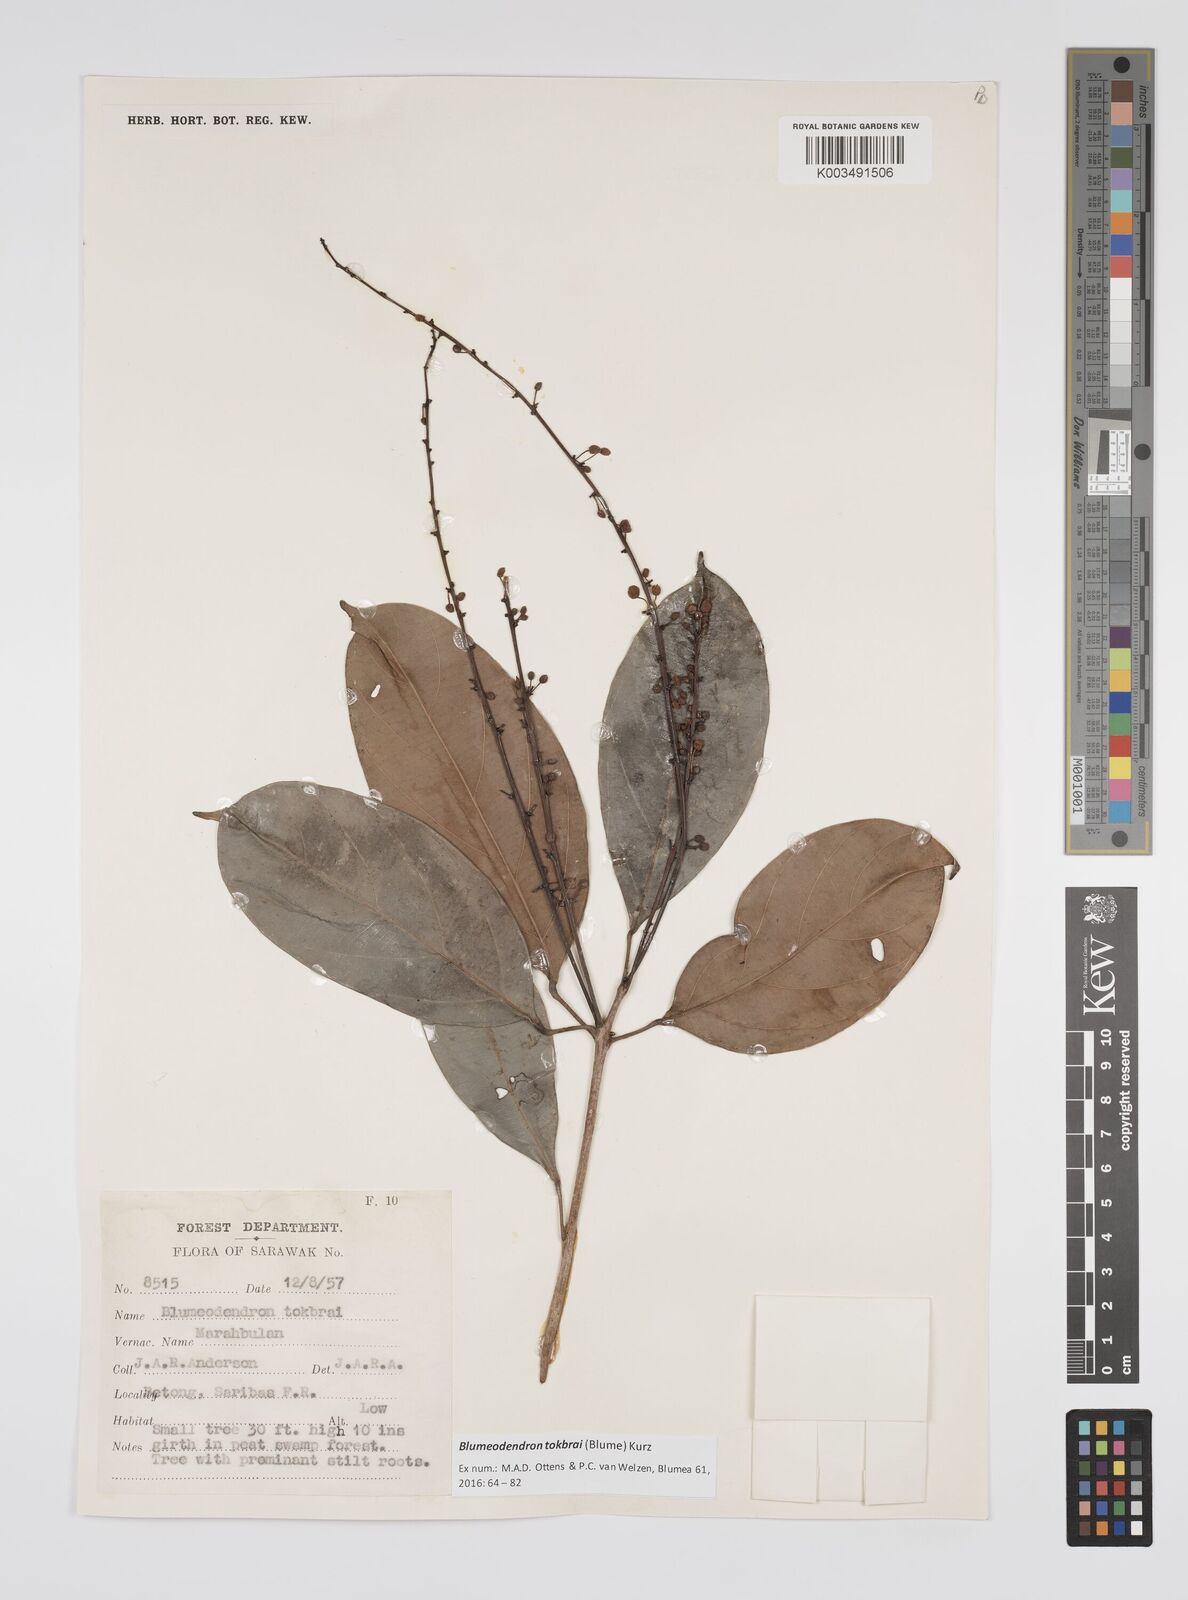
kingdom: Plantae
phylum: Tracheophyta
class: Magnoliopsida
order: Malpighiales
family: Euphorbiaceae
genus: Blumeodendron
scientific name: Blumeodendron tokbrai
